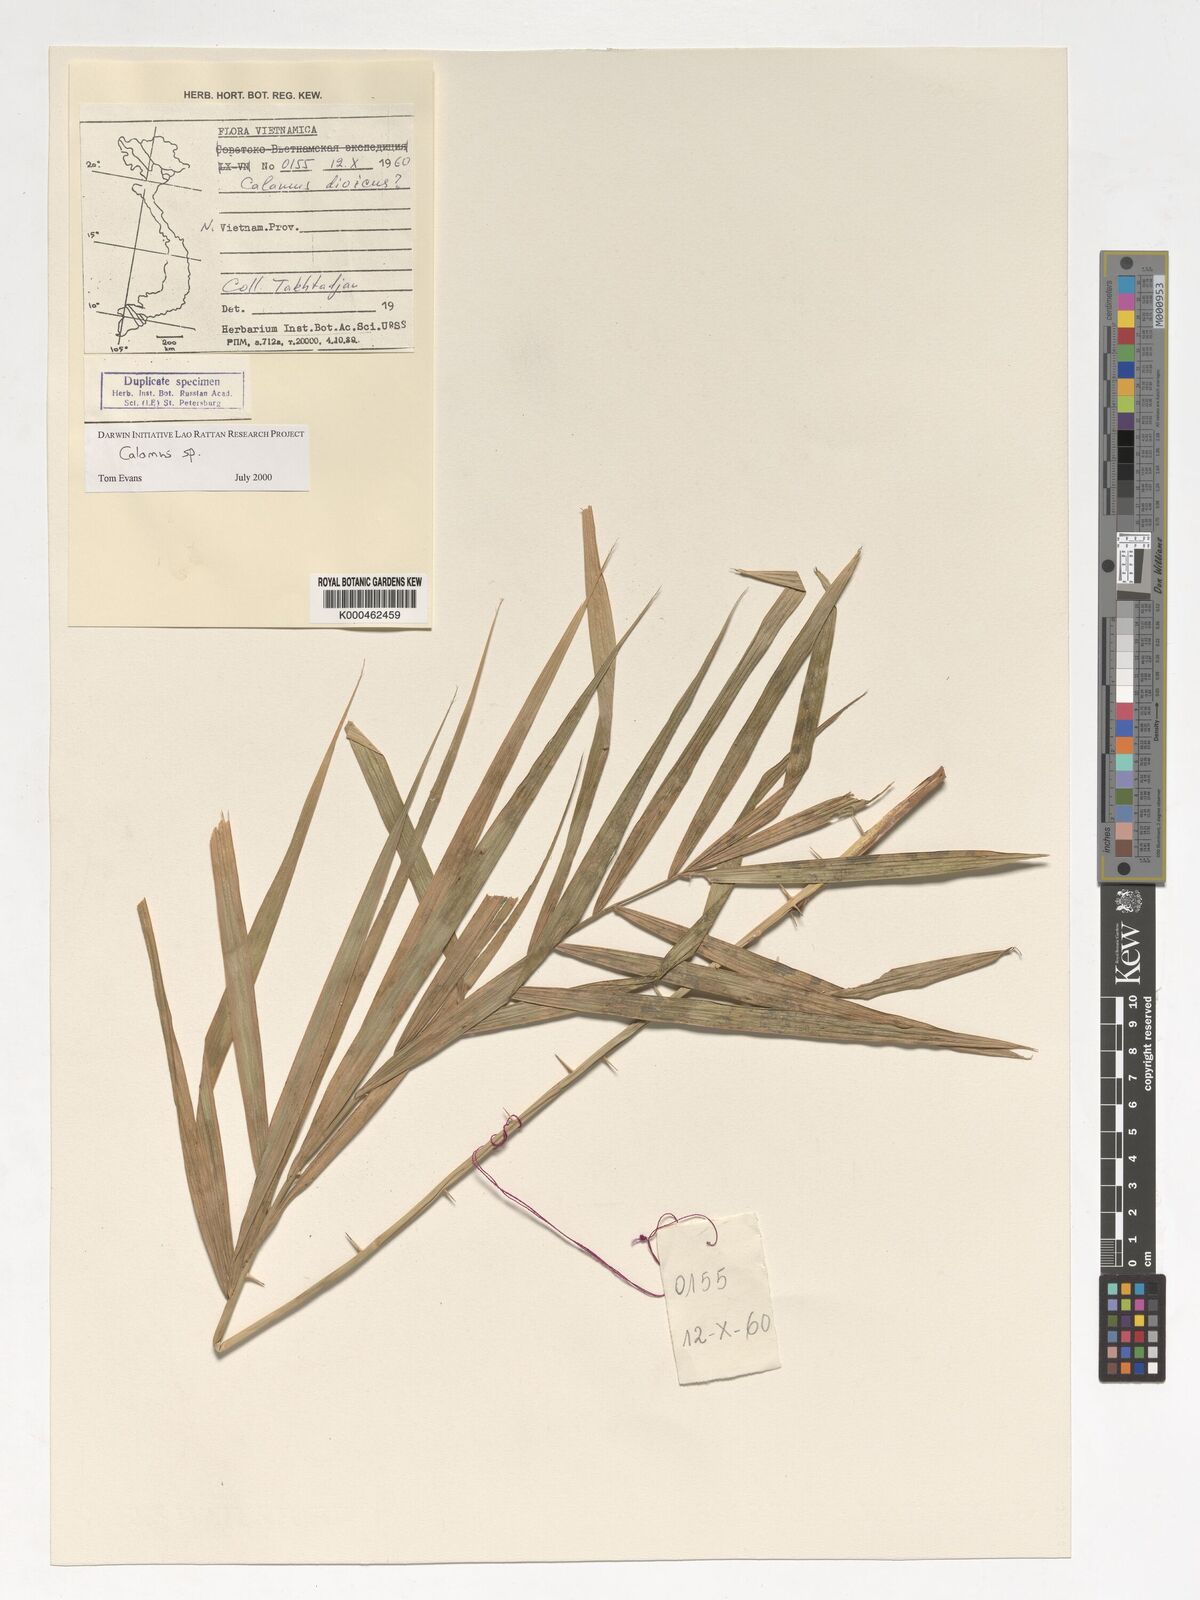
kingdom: Plantae
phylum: Tracheophyta
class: Liliopsida
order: Arecales
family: Arecaceae
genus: Calamus
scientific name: Calamus
